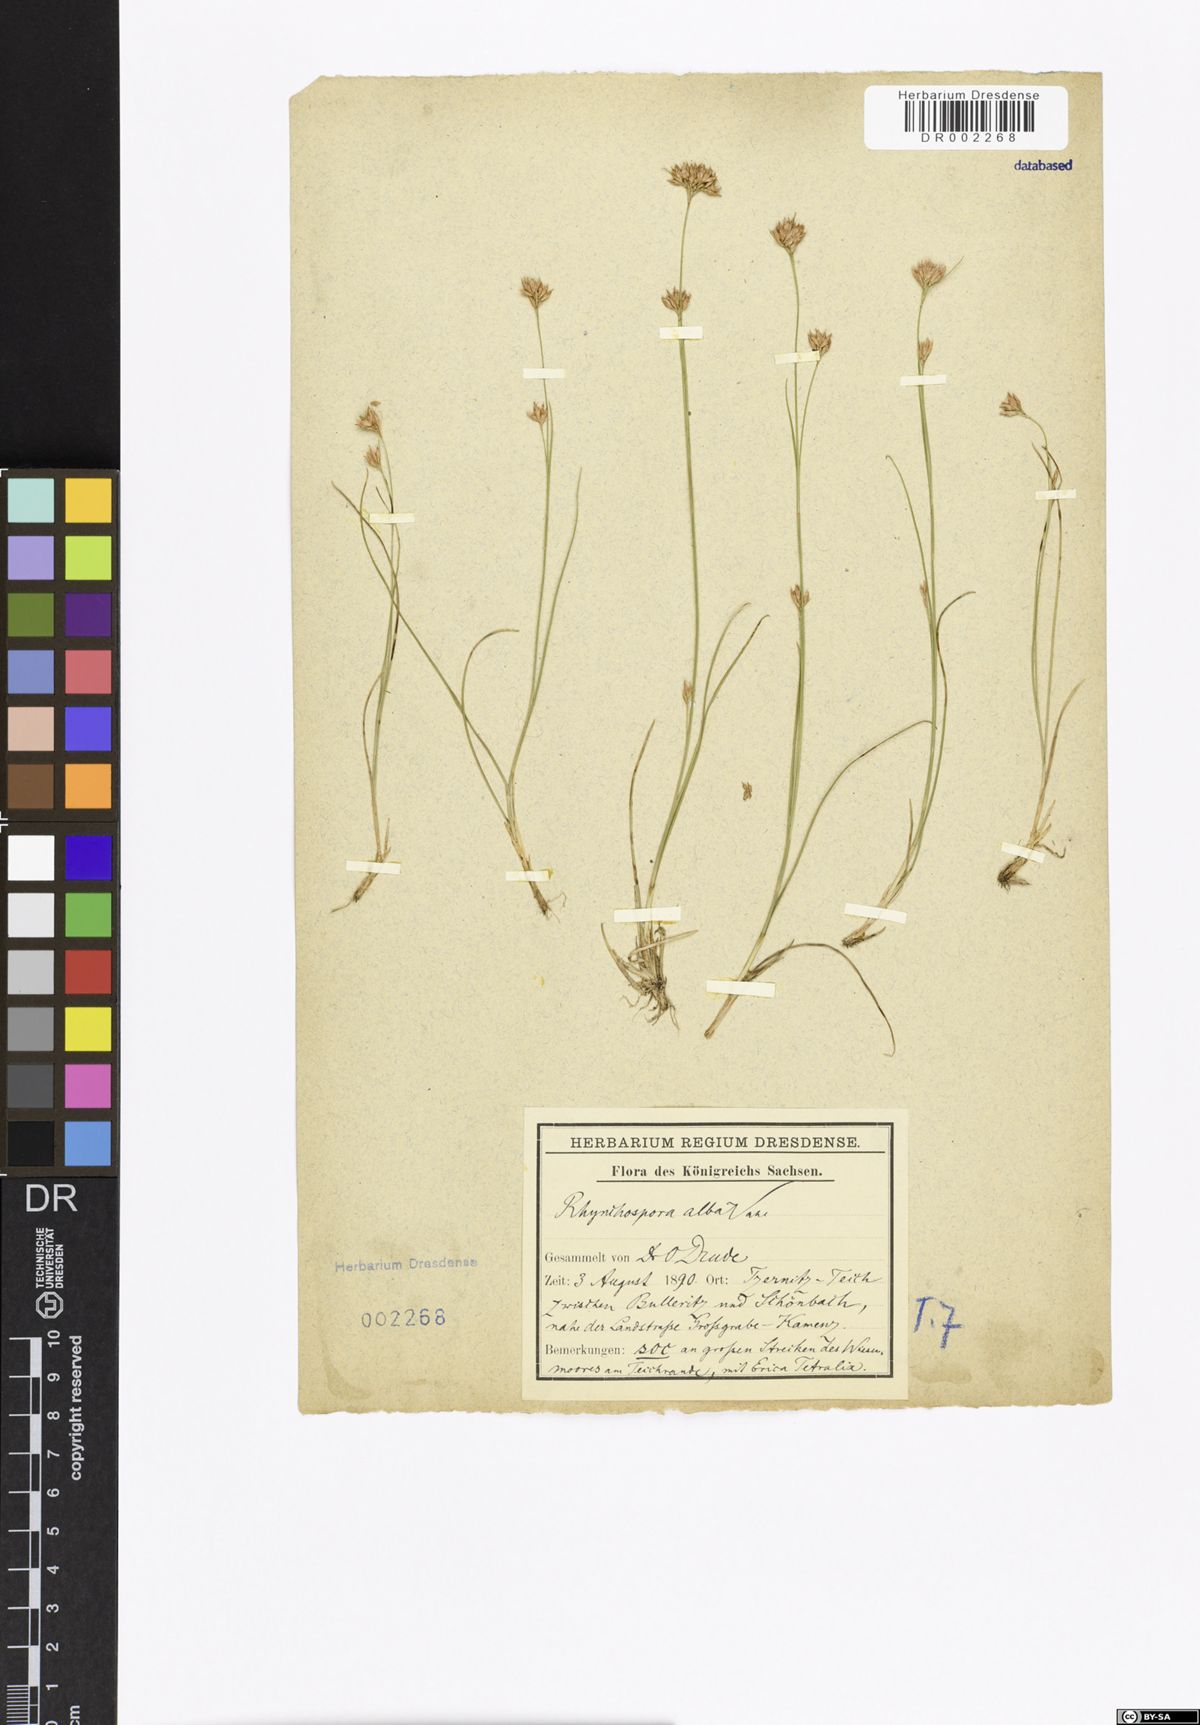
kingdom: Plantae
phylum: Tracheophyta
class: Liliopsida
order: Poales
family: Cyperaceae
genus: Rhynchospora
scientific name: Rhynchospora alba
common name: White beak-sedge
